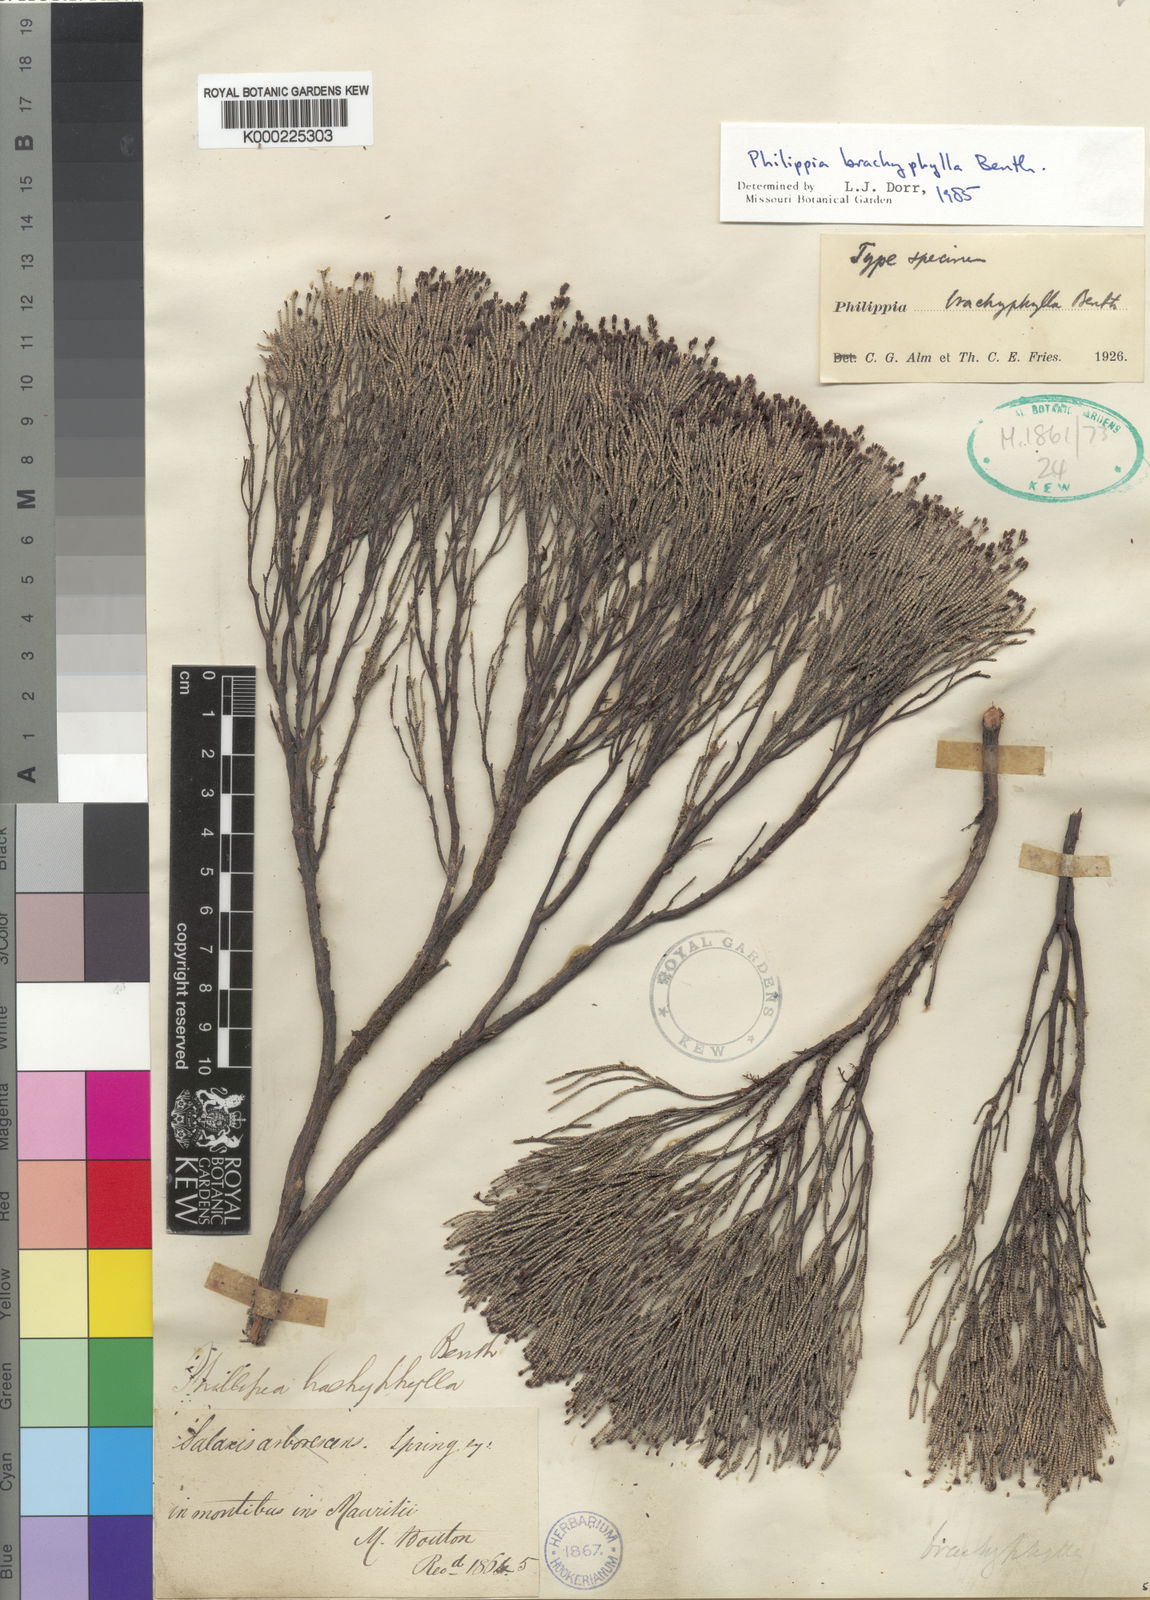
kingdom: Plantae
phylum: Tracheophyta
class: Magnoliopsida
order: Ericales
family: Ericaceae
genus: Erica
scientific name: Erica brachyphylla
